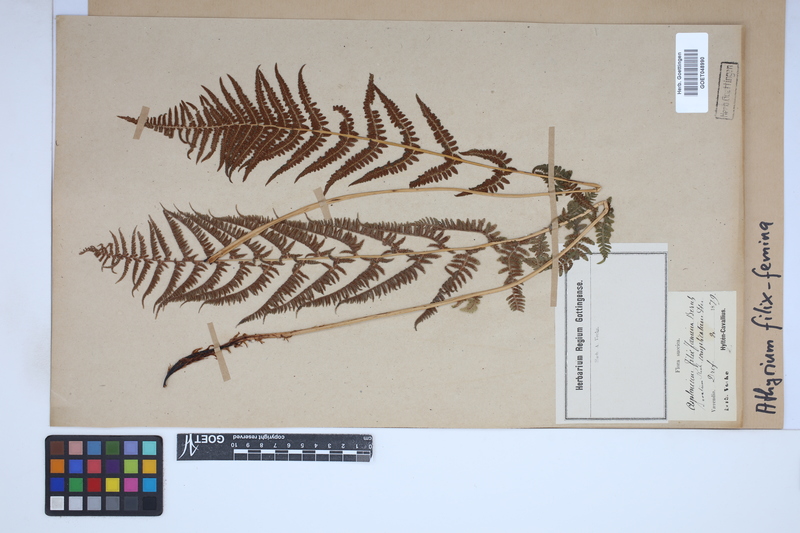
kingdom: Plantae
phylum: Tracheophyta
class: Polypodiopsida
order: Polypodiales
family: Athyriaceae
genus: Athyrium
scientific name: Athyrium filix-femina
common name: Lady fern
